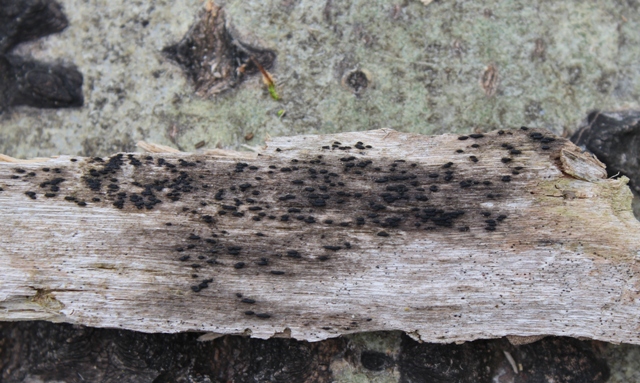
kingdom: Fungi
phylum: Ascomycota
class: Dothideomycetes
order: Hysteriales
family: Hysteriaceae
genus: Hysterium
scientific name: Hysterium pulicare
